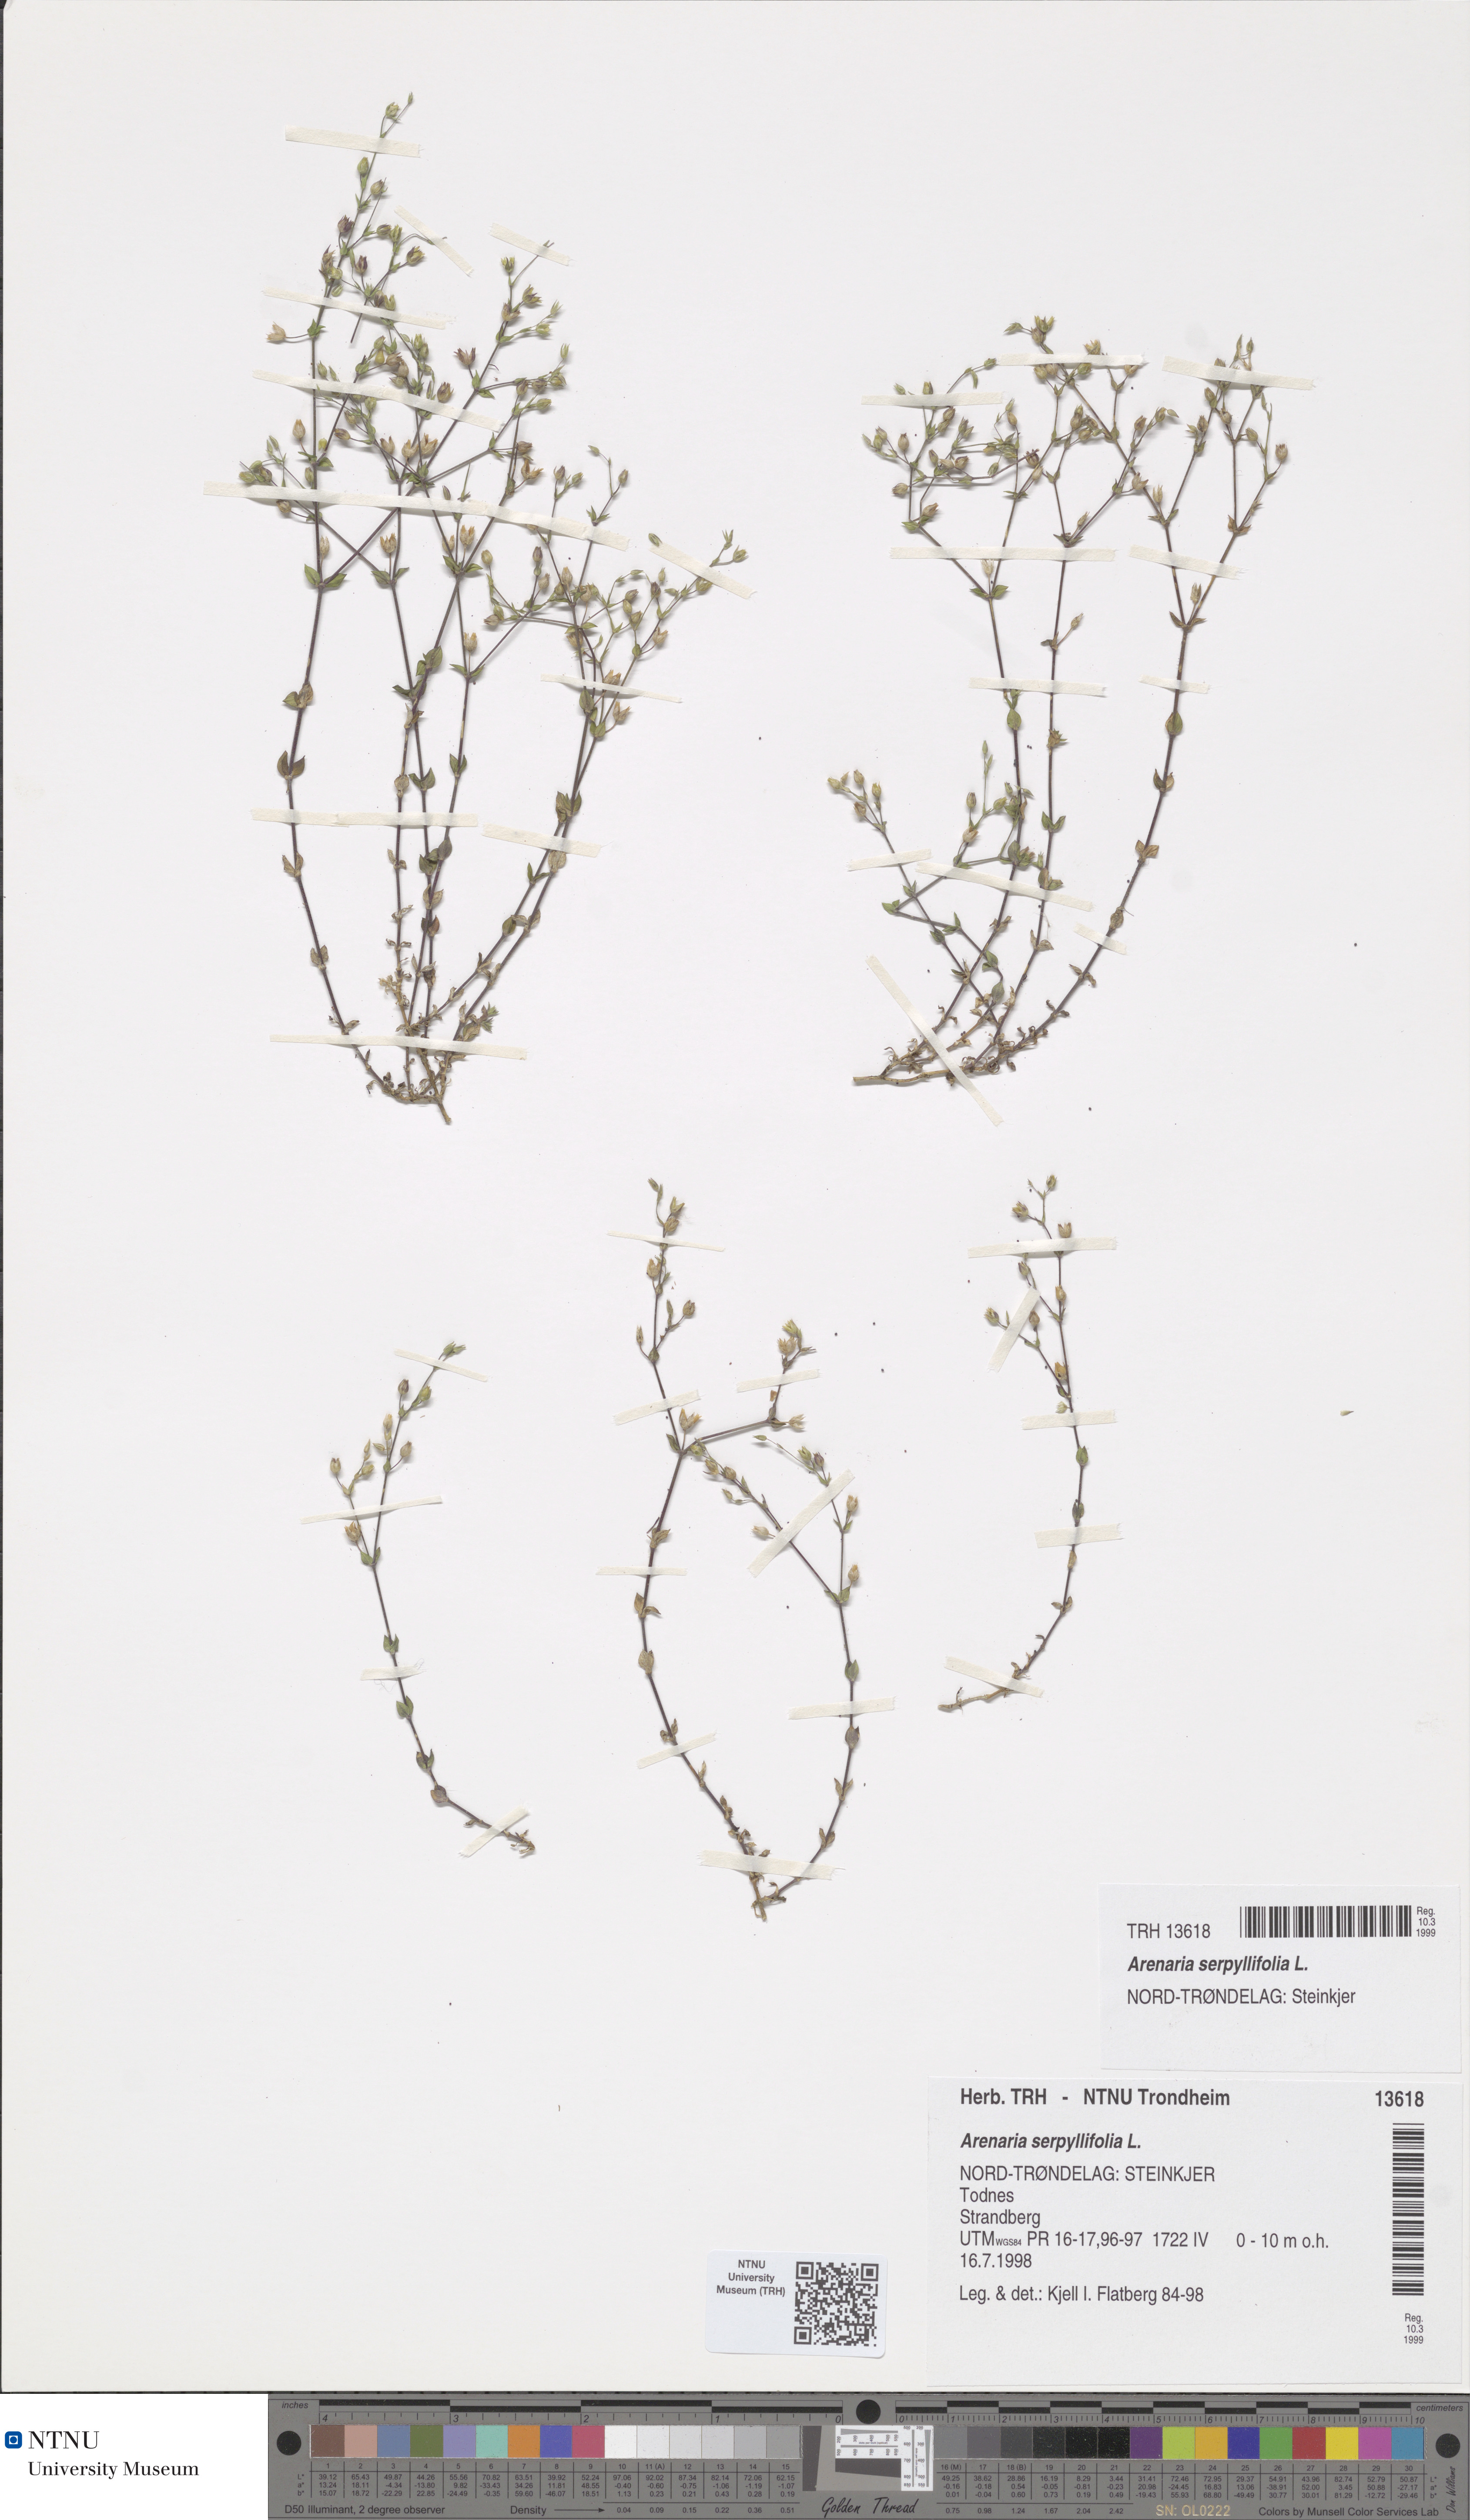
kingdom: Plantae
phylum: Tracheophyta
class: Magnoliopsida
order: Caryophyllales
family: Caryophyllaceae
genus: Arenaria
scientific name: Arenaria serpyllifolia
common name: Thyme-leaved sandwort
